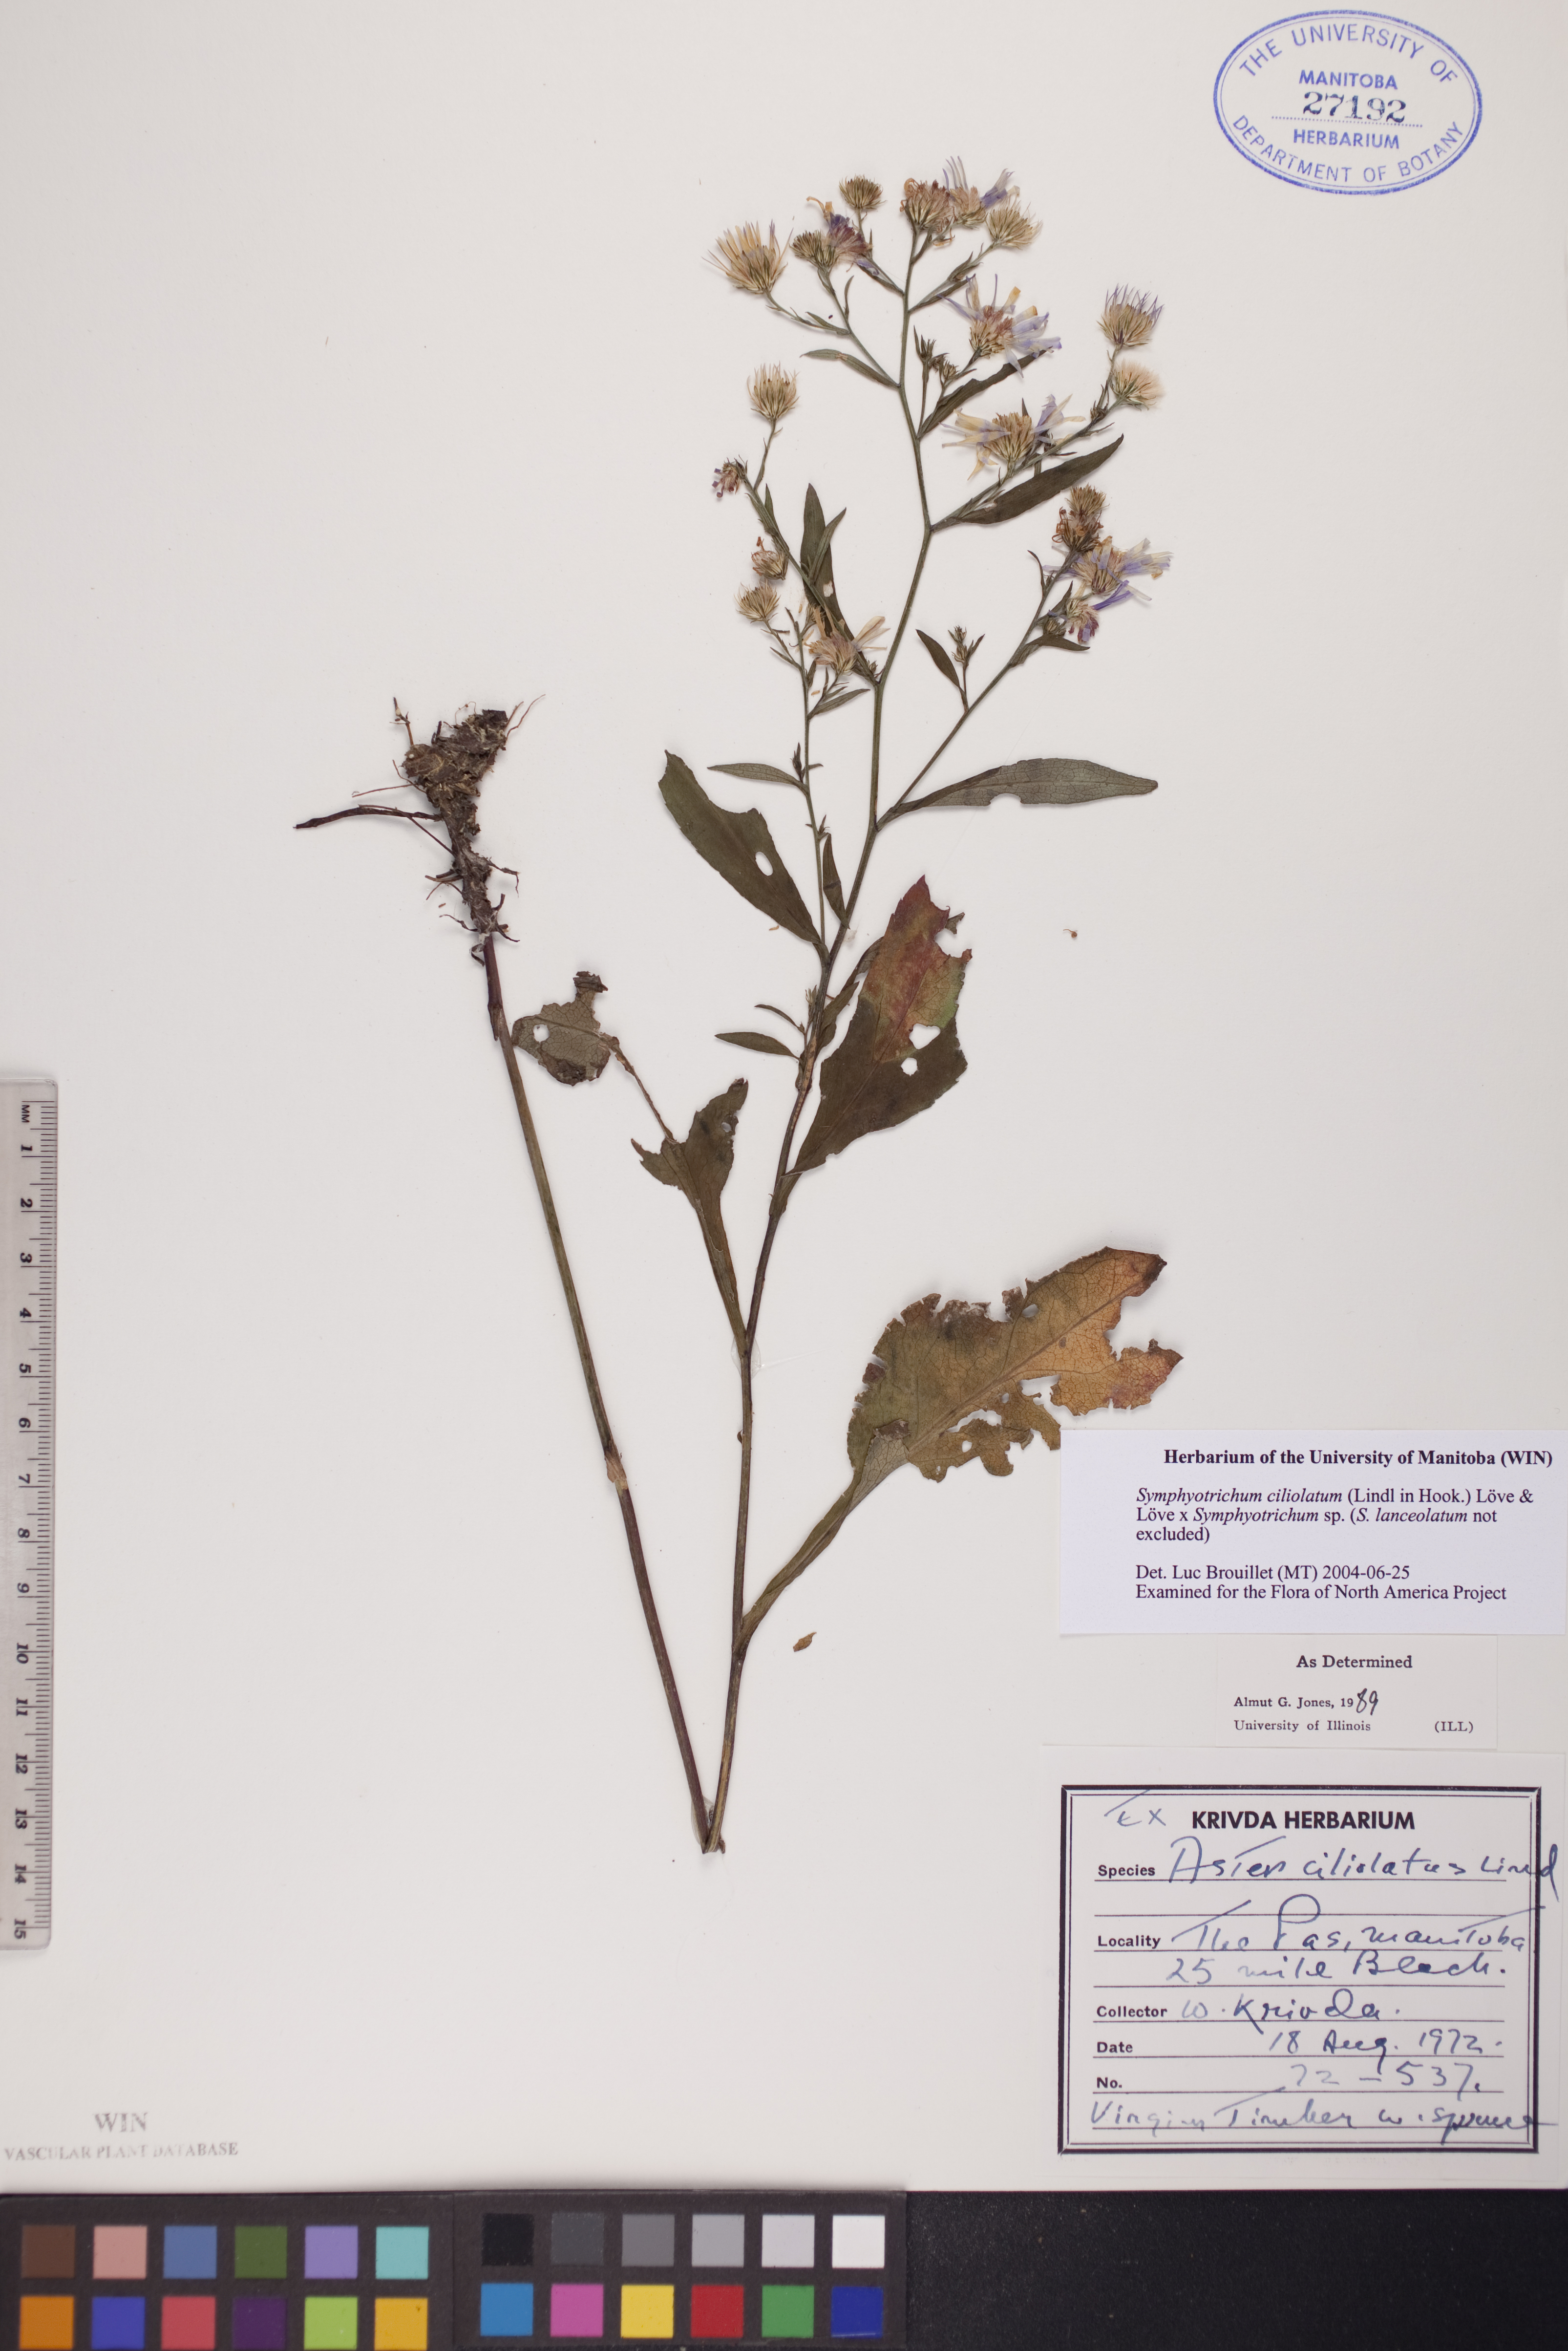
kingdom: Plantae
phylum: Tracheophyta
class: Magnoliopsida
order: Asterales
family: Asteraceae
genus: Symphyotrichum
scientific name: Symphyotrichum ciliolatum
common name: Fringed blue aster
